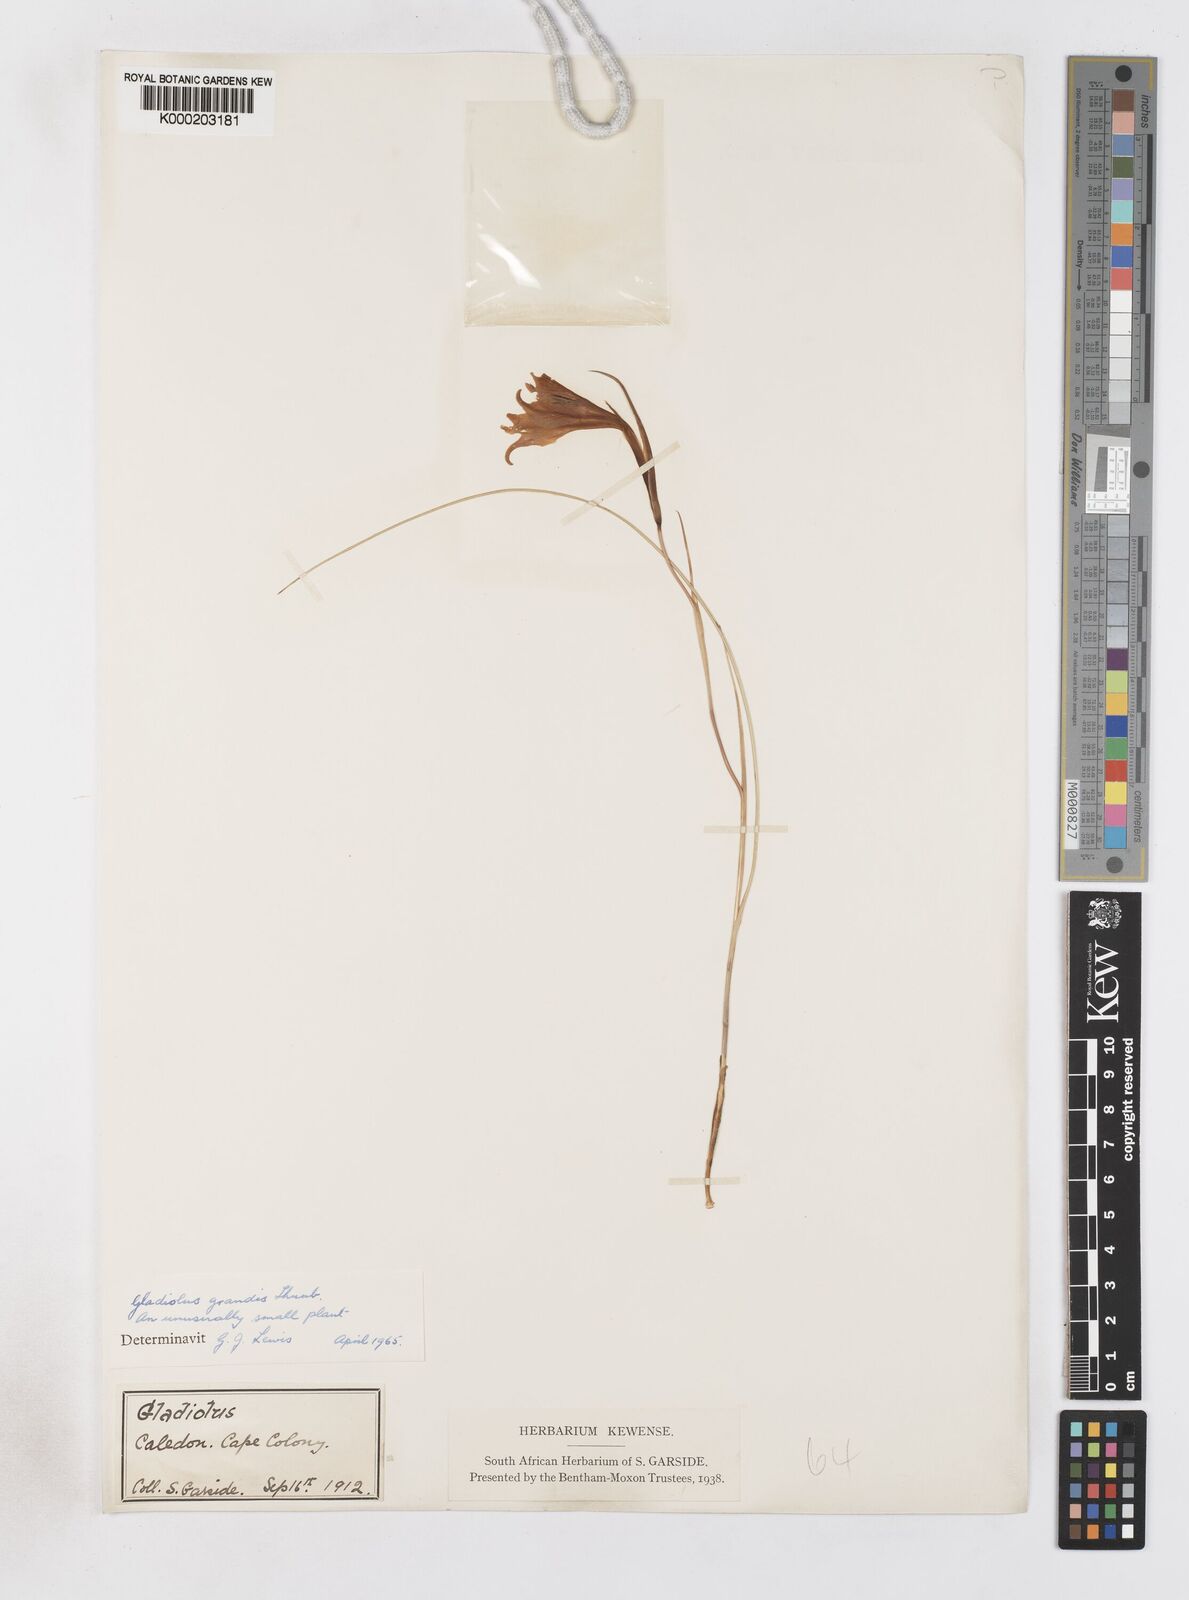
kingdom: Plantae
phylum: Tracheophyta
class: Liliopsida
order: Asparagales
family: Iridaceae
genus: Gladiolus
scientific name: Gladiolus liliaceus
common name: Large brown afrikaner
